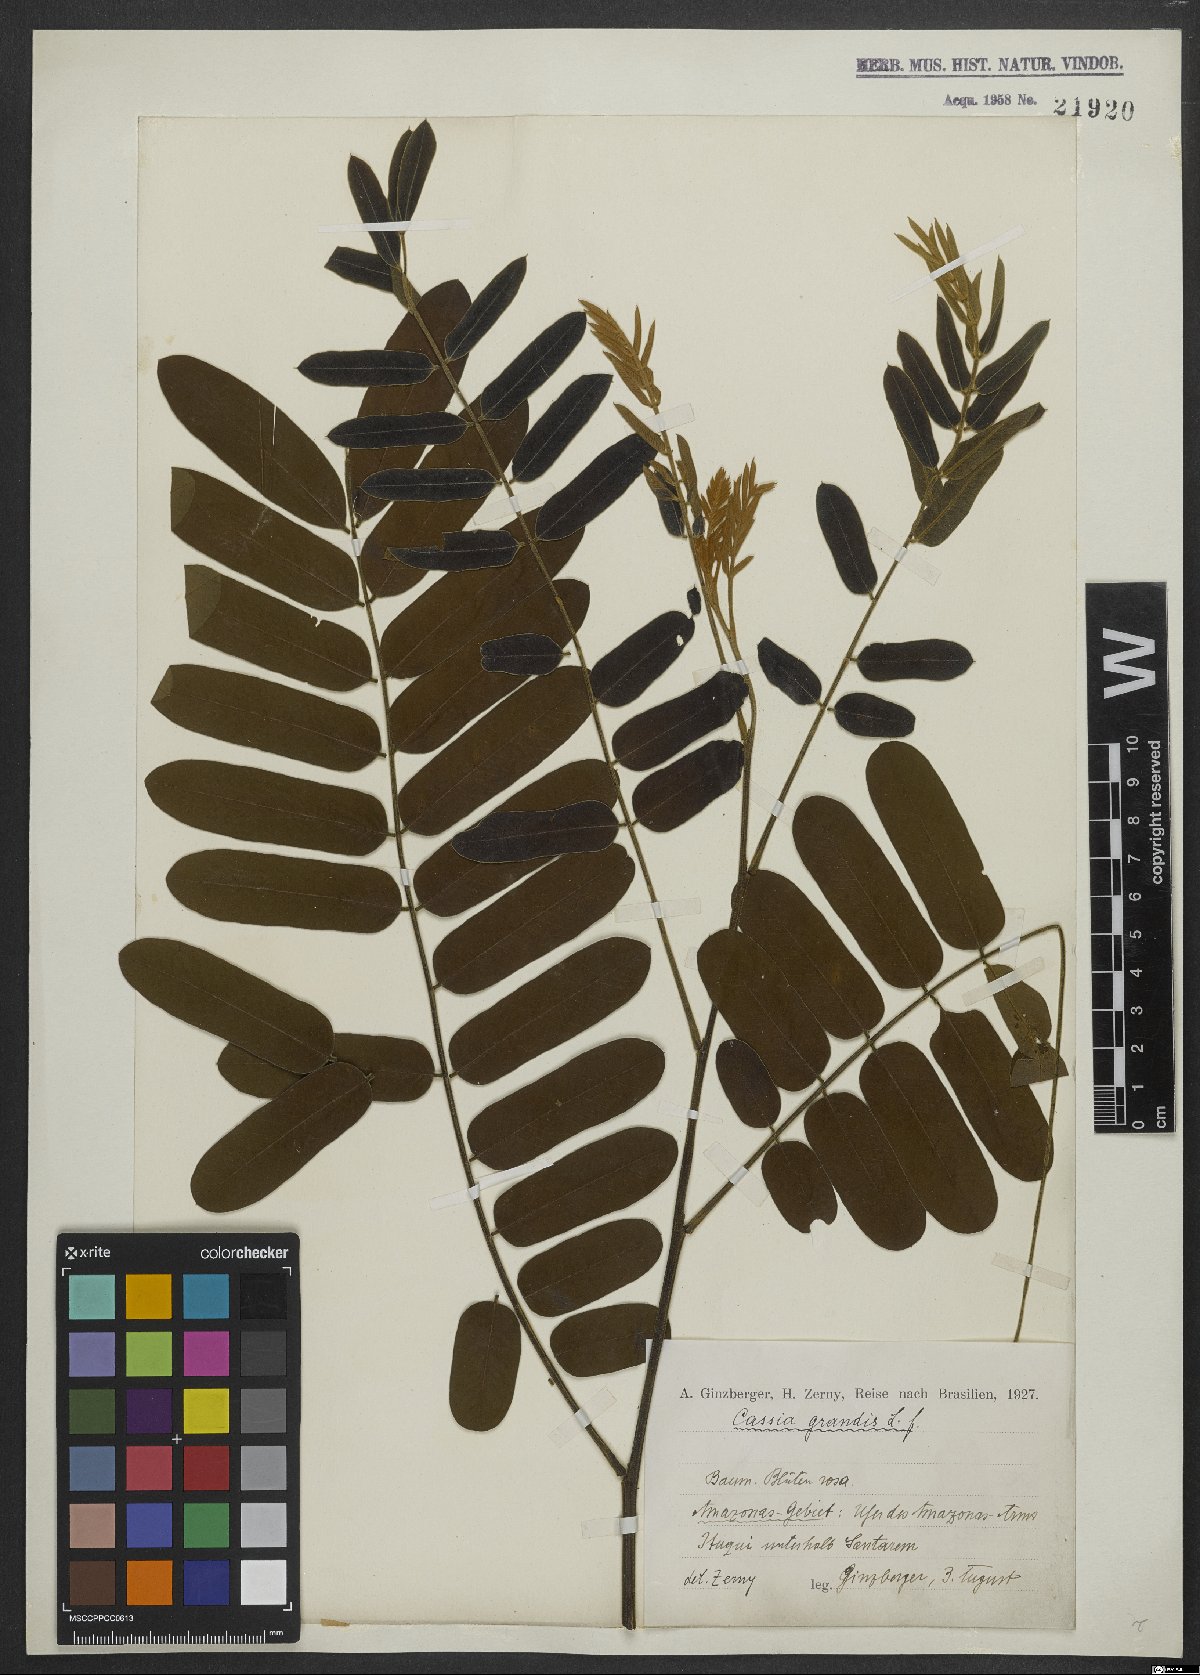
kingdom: Plantae
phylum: Tracheophyta
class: Magnoliopsida
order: Fabales
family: Fabaceae
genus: Cassia
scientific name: Cassia grandis
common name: Appleblossom cassia
